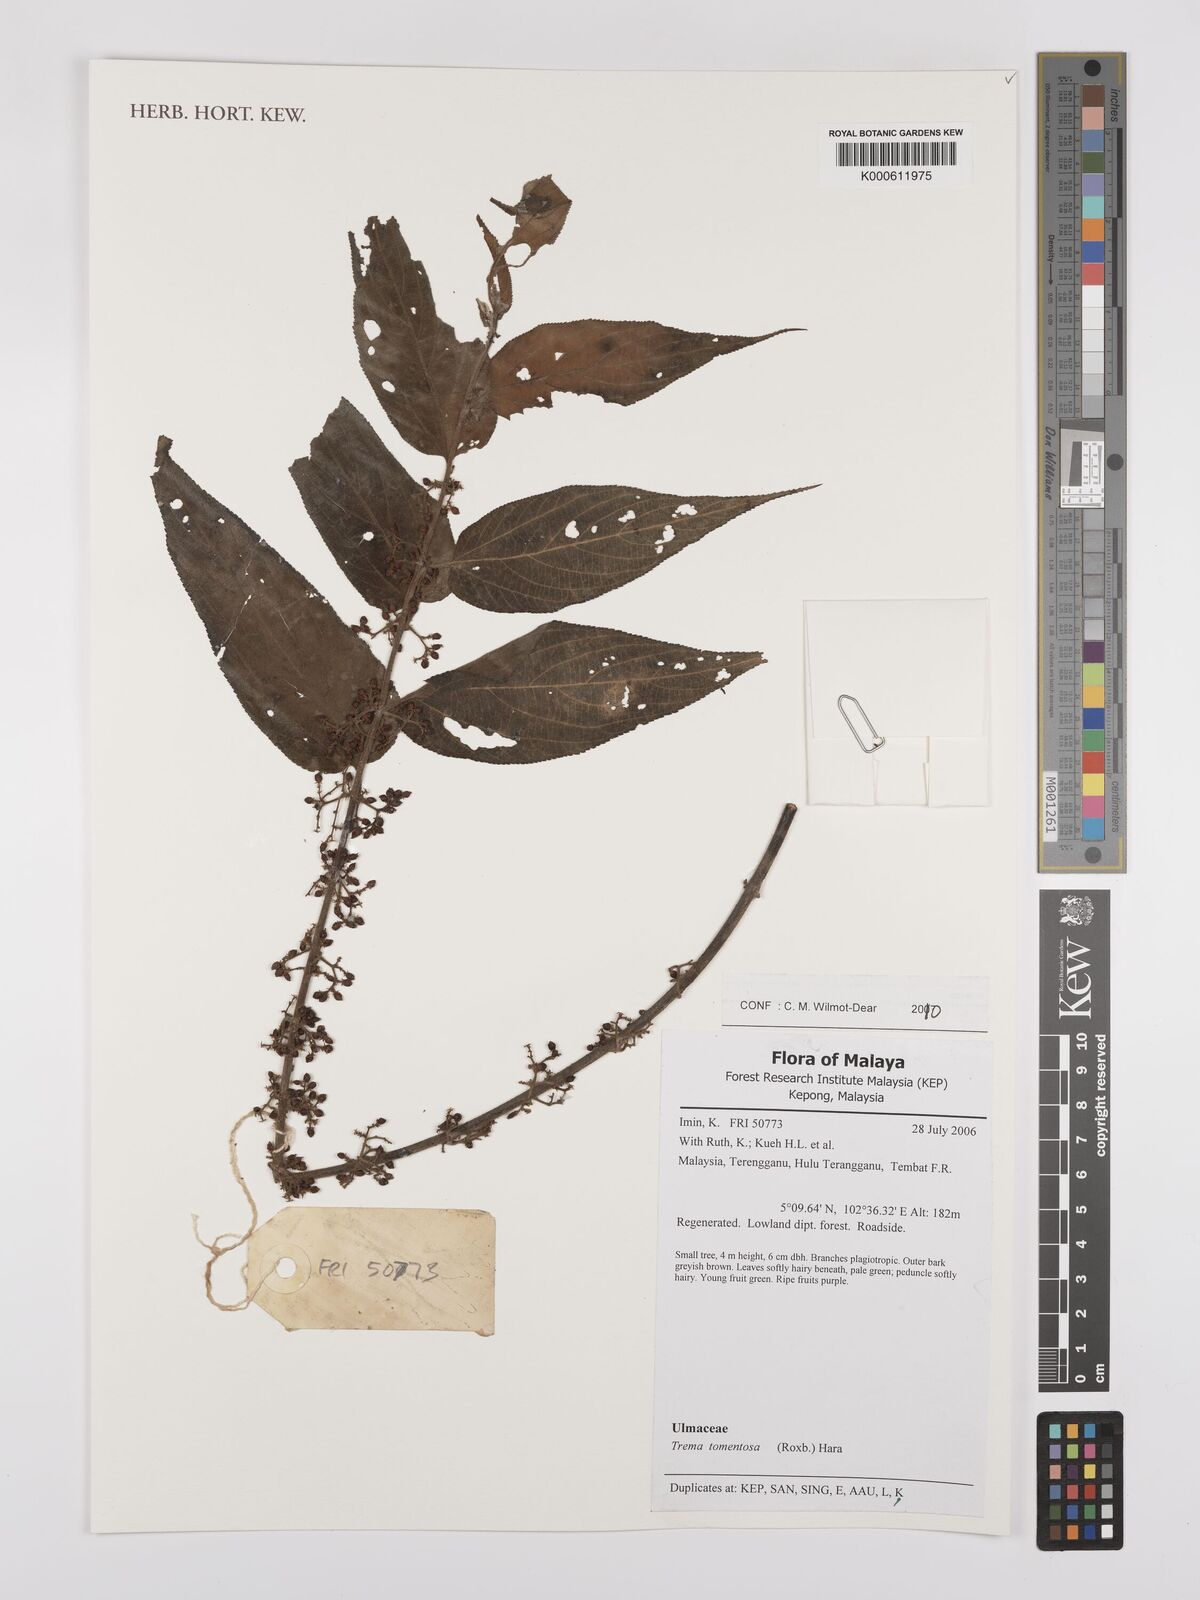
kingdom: Plantae
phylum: Tracheophyta
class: Magnoliopsida
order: Rosales
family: Cannabaceae
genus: Trema
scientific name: Trema tomentosum
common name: Peach-leaf-poisonbush
